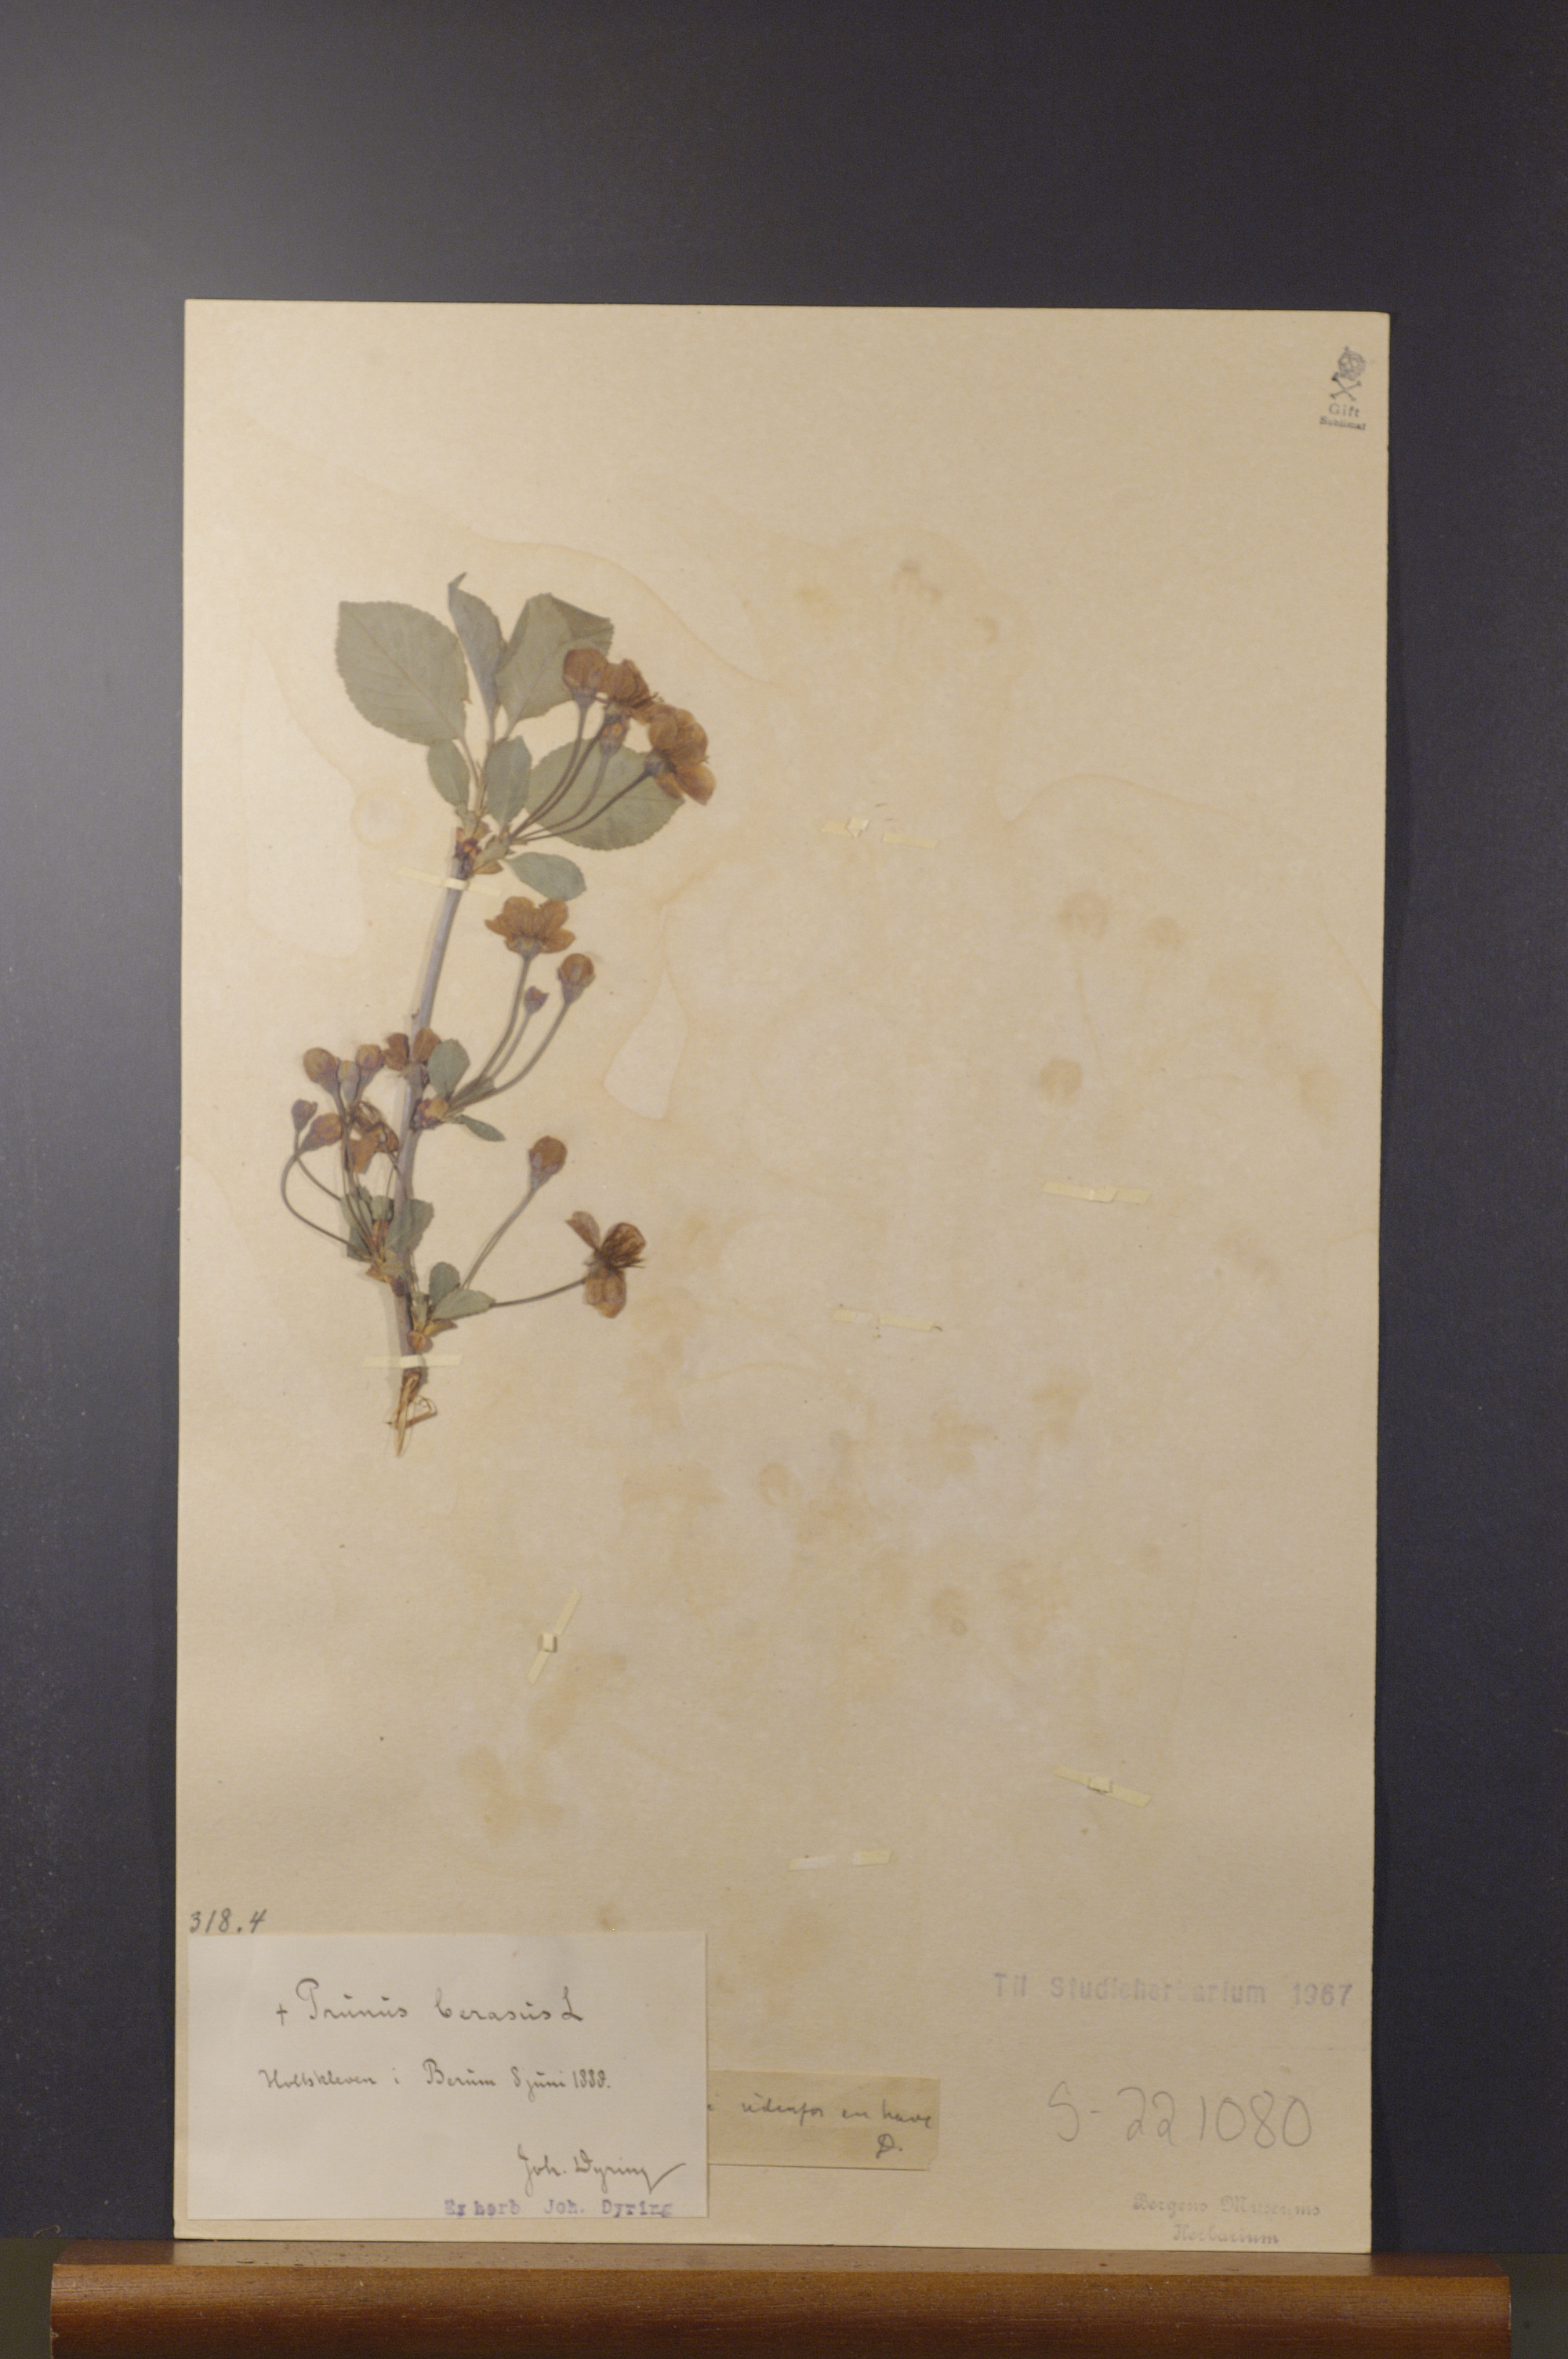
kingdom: Plantae
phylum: Tracheophyta
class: Magnoliopsida
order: Rosales
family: Rosaceae
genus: Prunus
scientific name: Prunus cerasus
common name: Morello cherry
